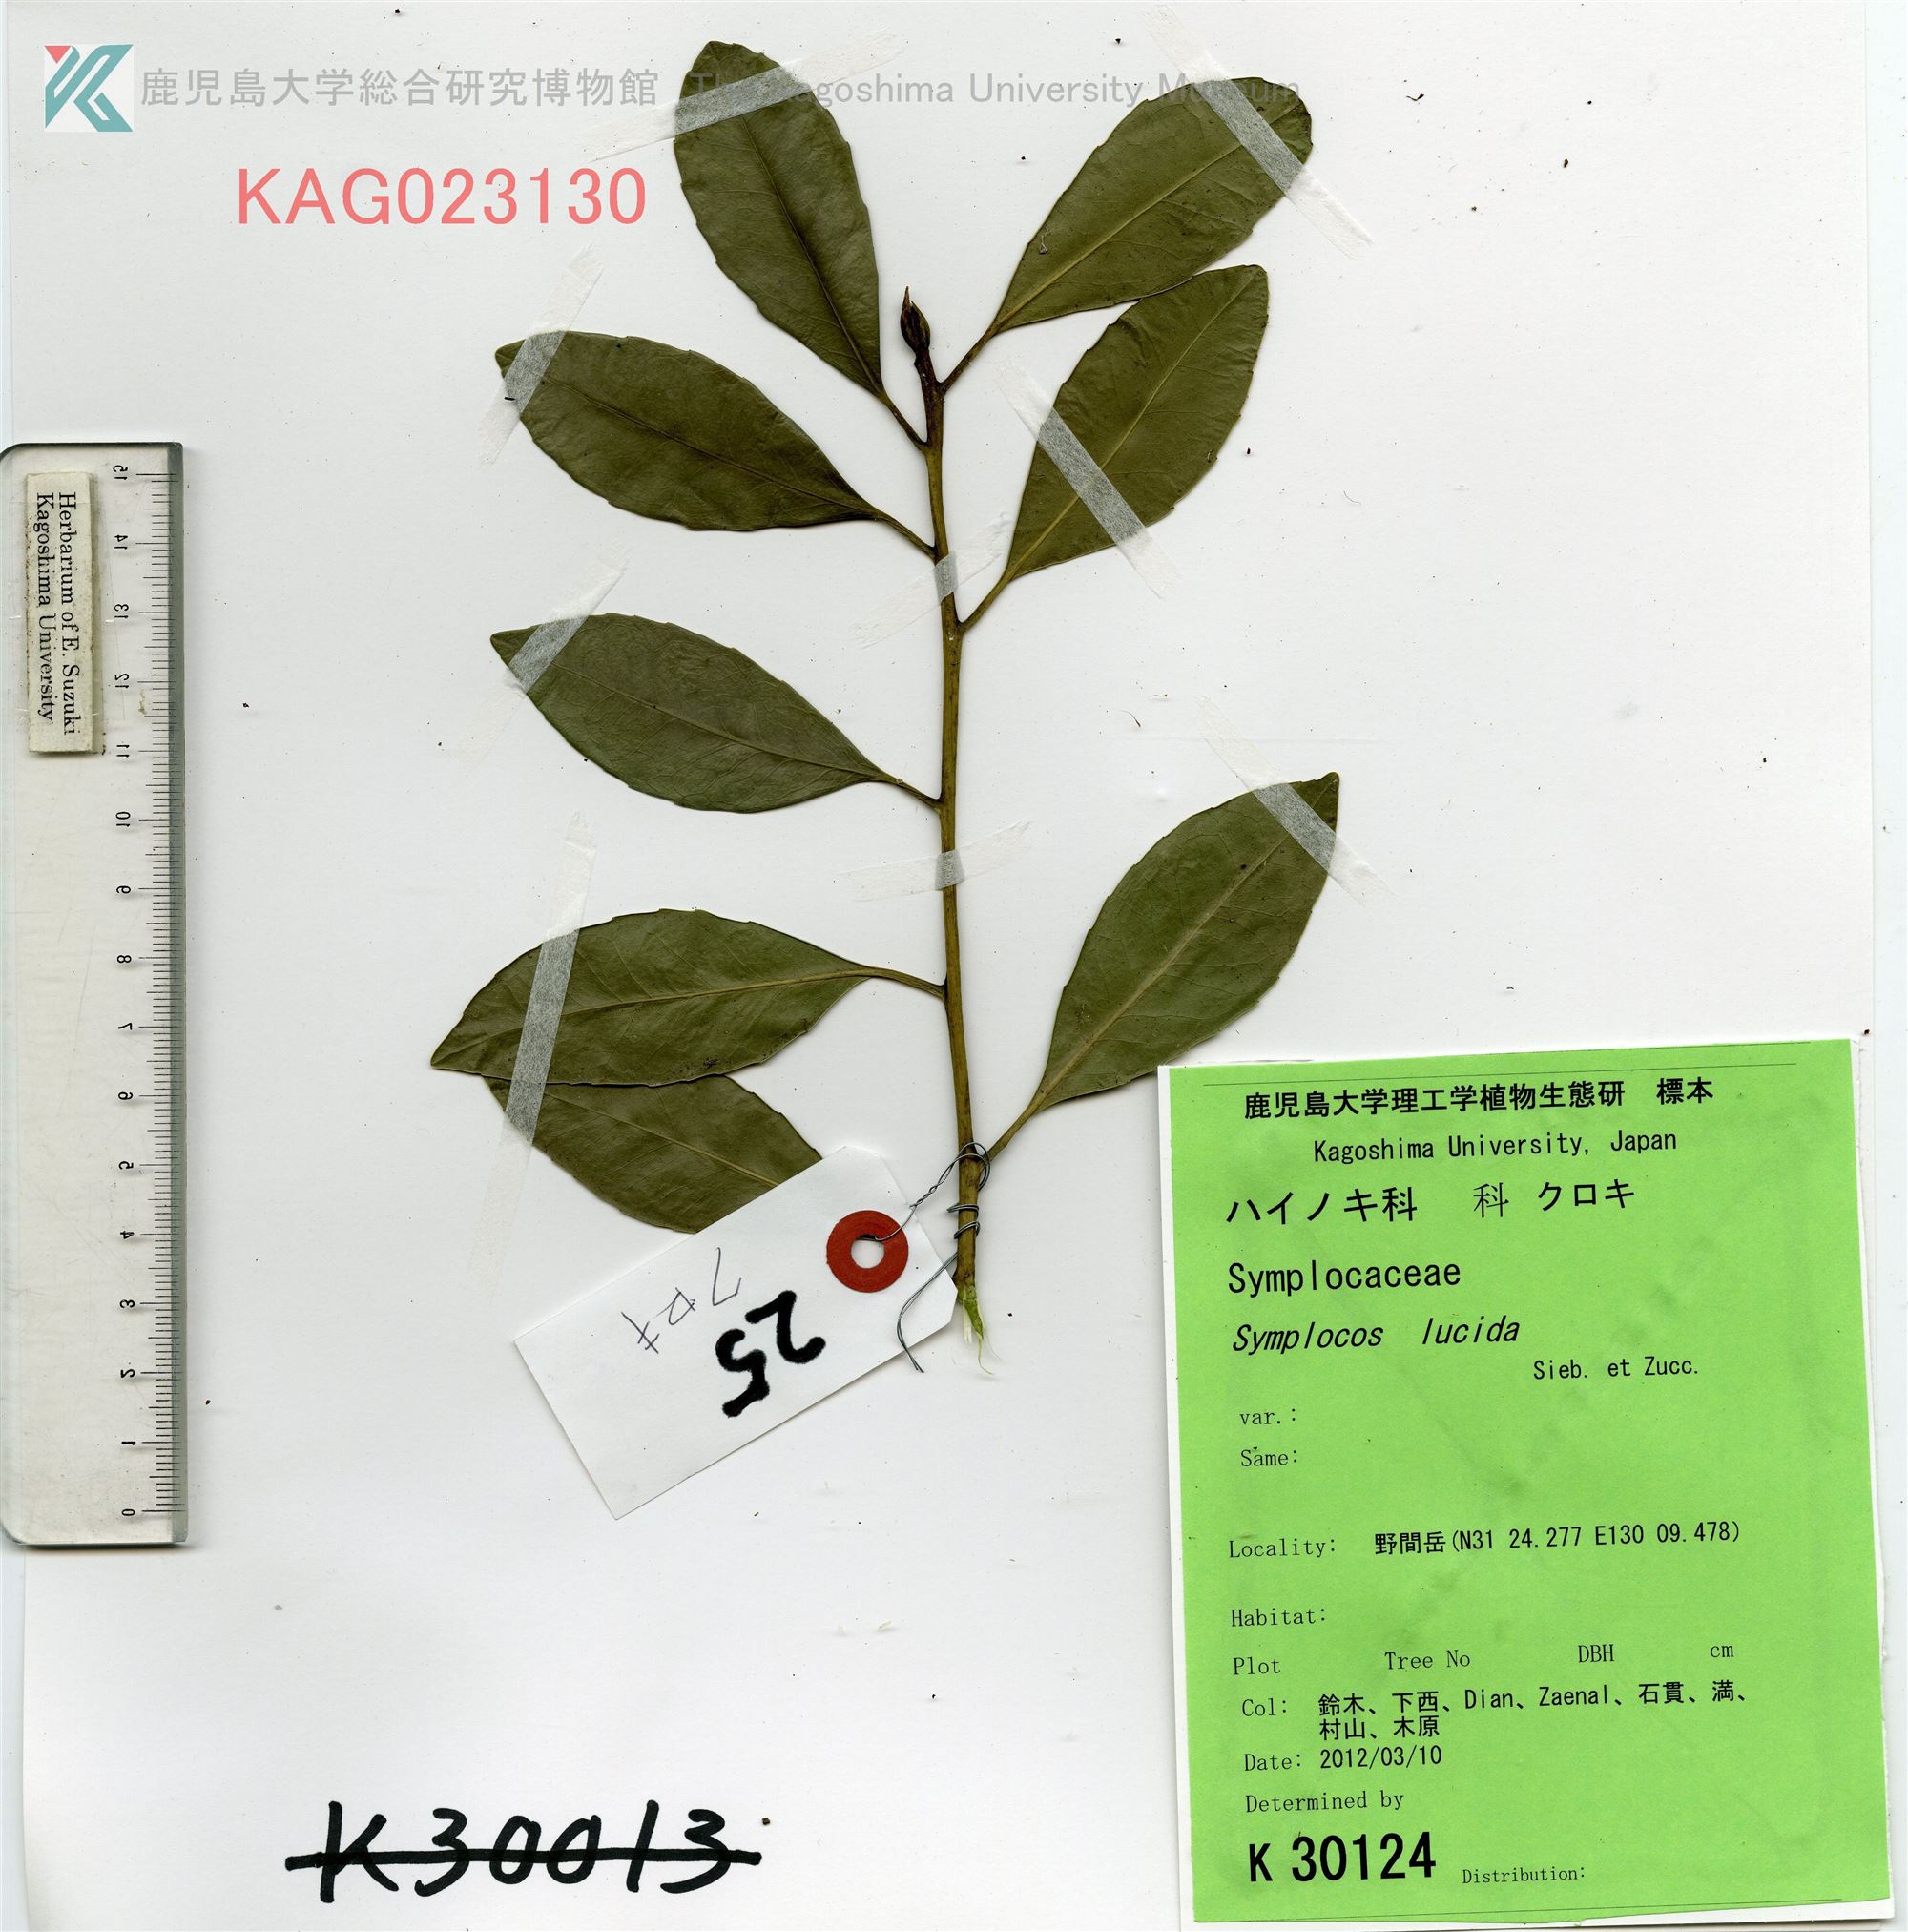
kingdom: Plantae
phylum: Tracheophyta
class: Magnoliopsida
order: Ericales
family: Symplocaceae
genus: Symplocos
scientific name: Symplocos nakaharae
